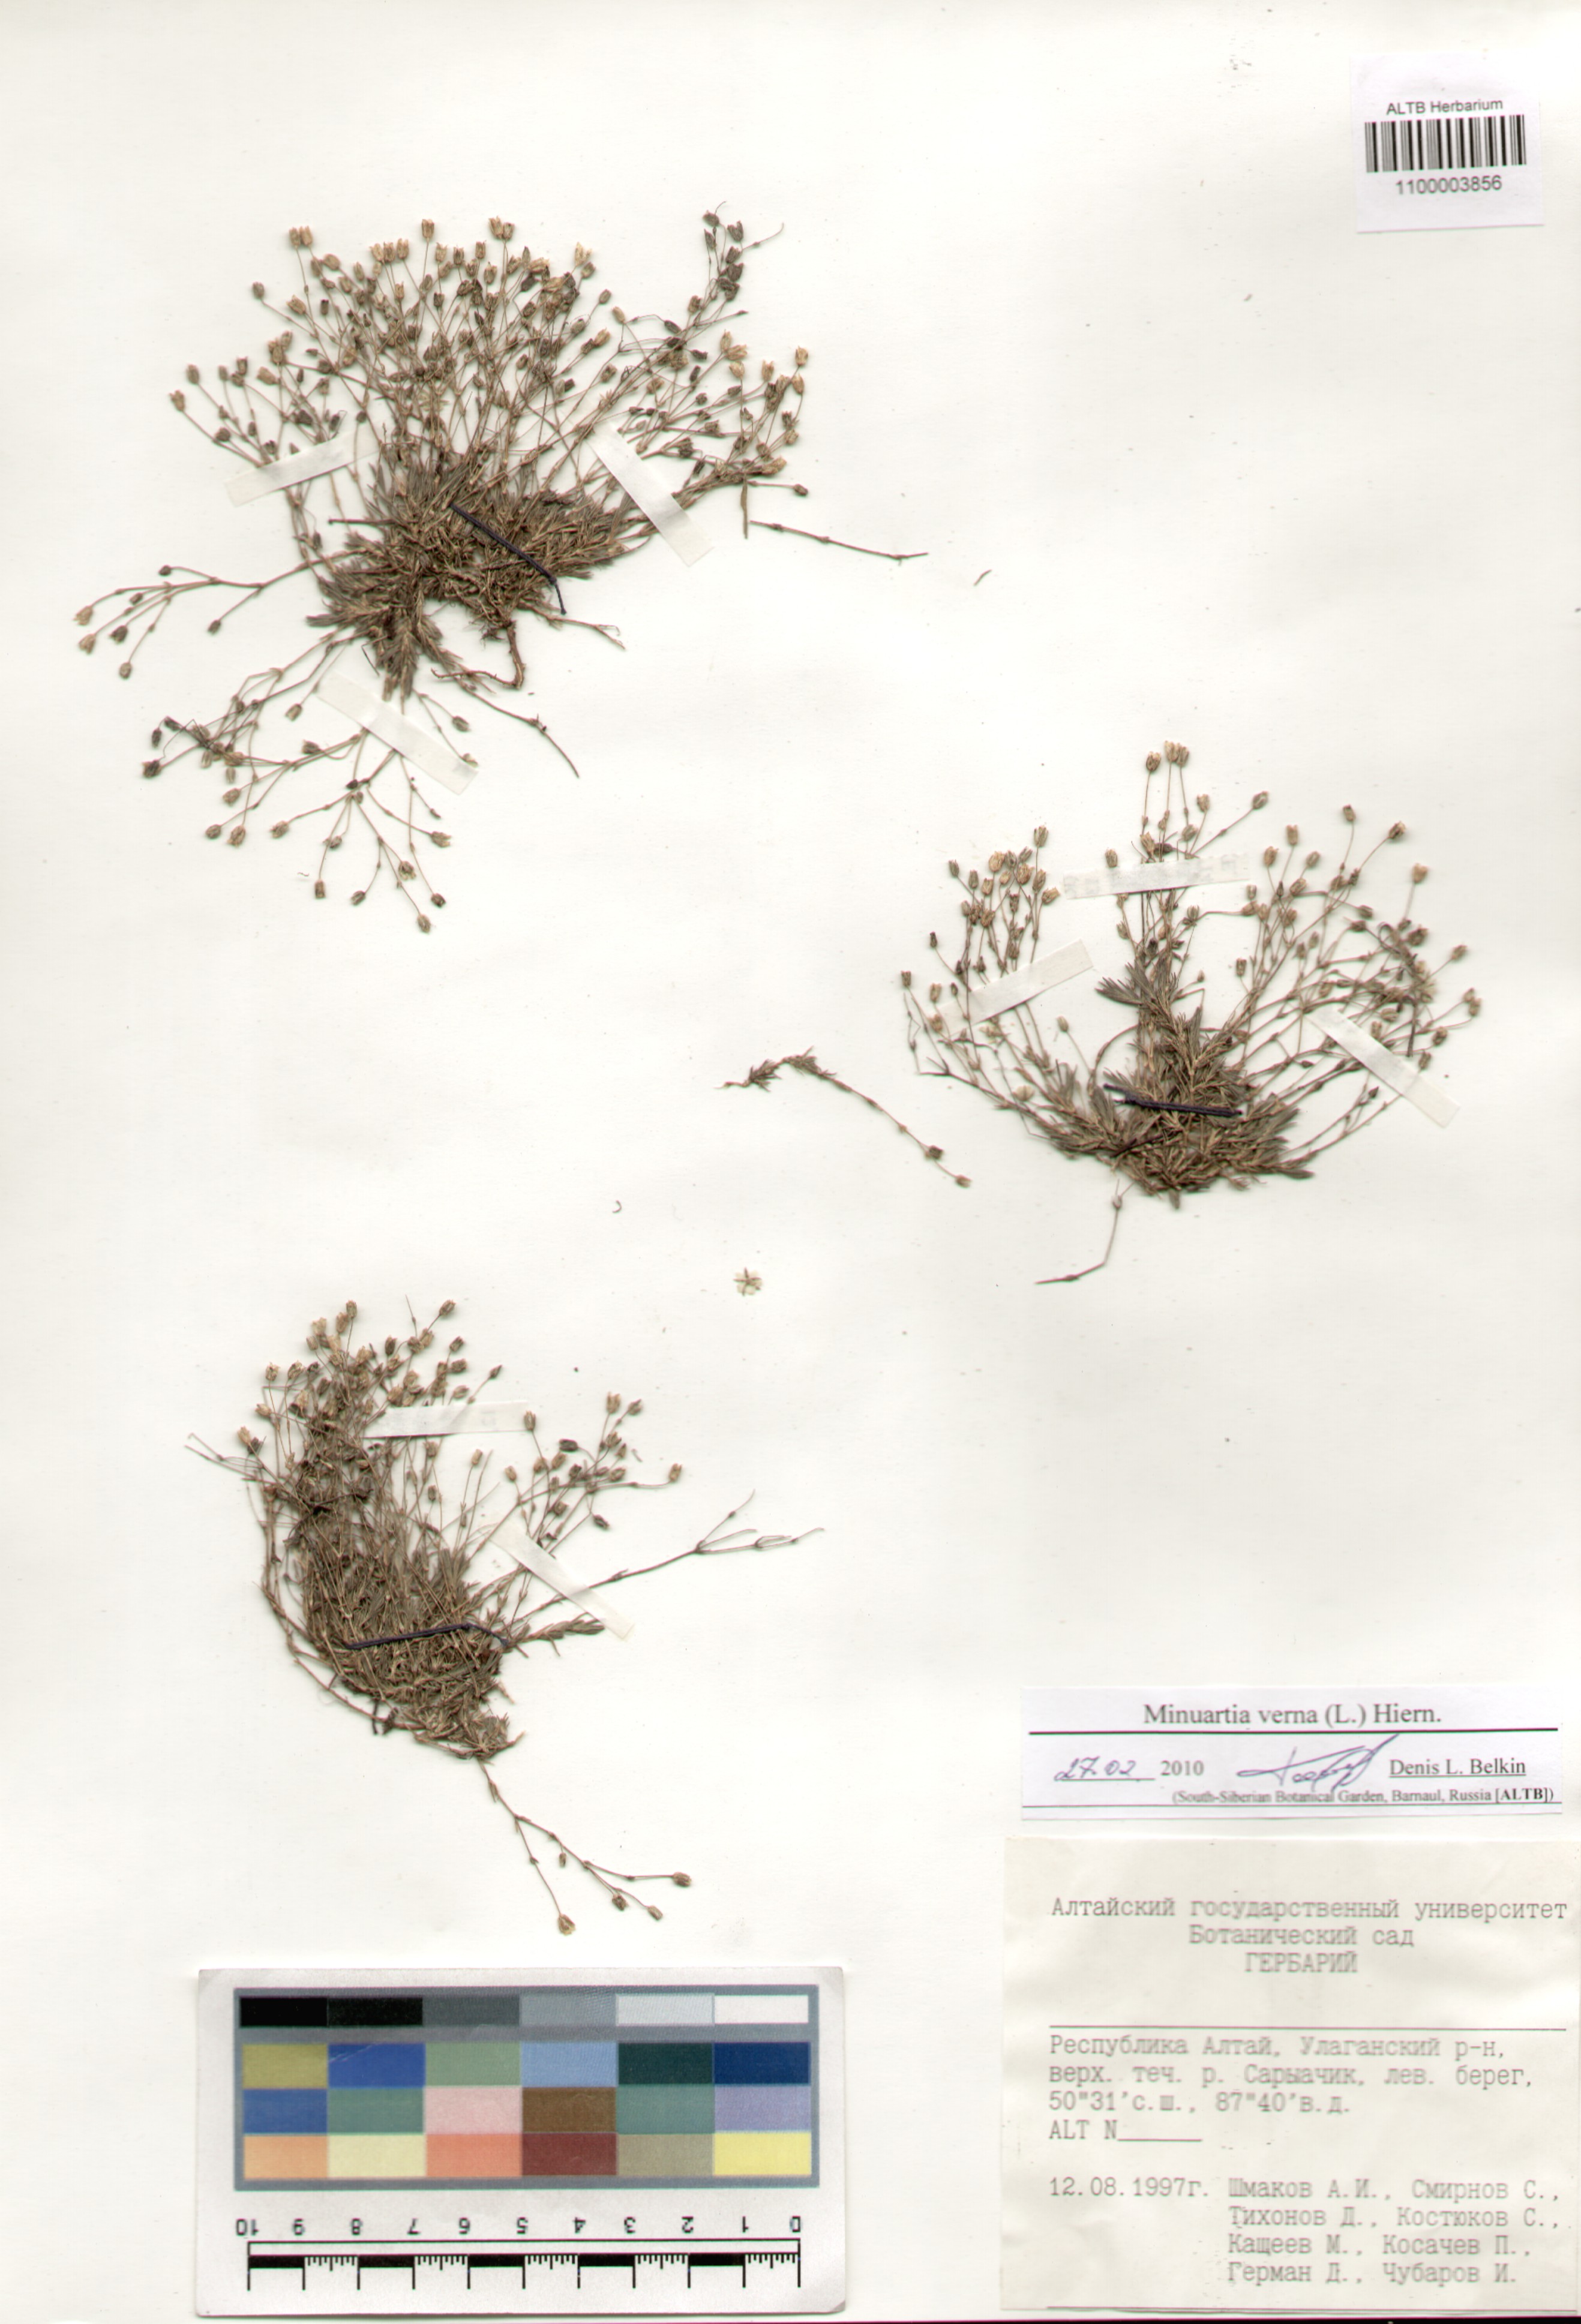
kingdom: Plantae
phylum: Tracheophyta
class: Magnoliopsida
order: Caryophyllales
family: Caryophyllaceae
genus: Sabulina
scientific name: Sabulina verna
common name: Spring sandwort
